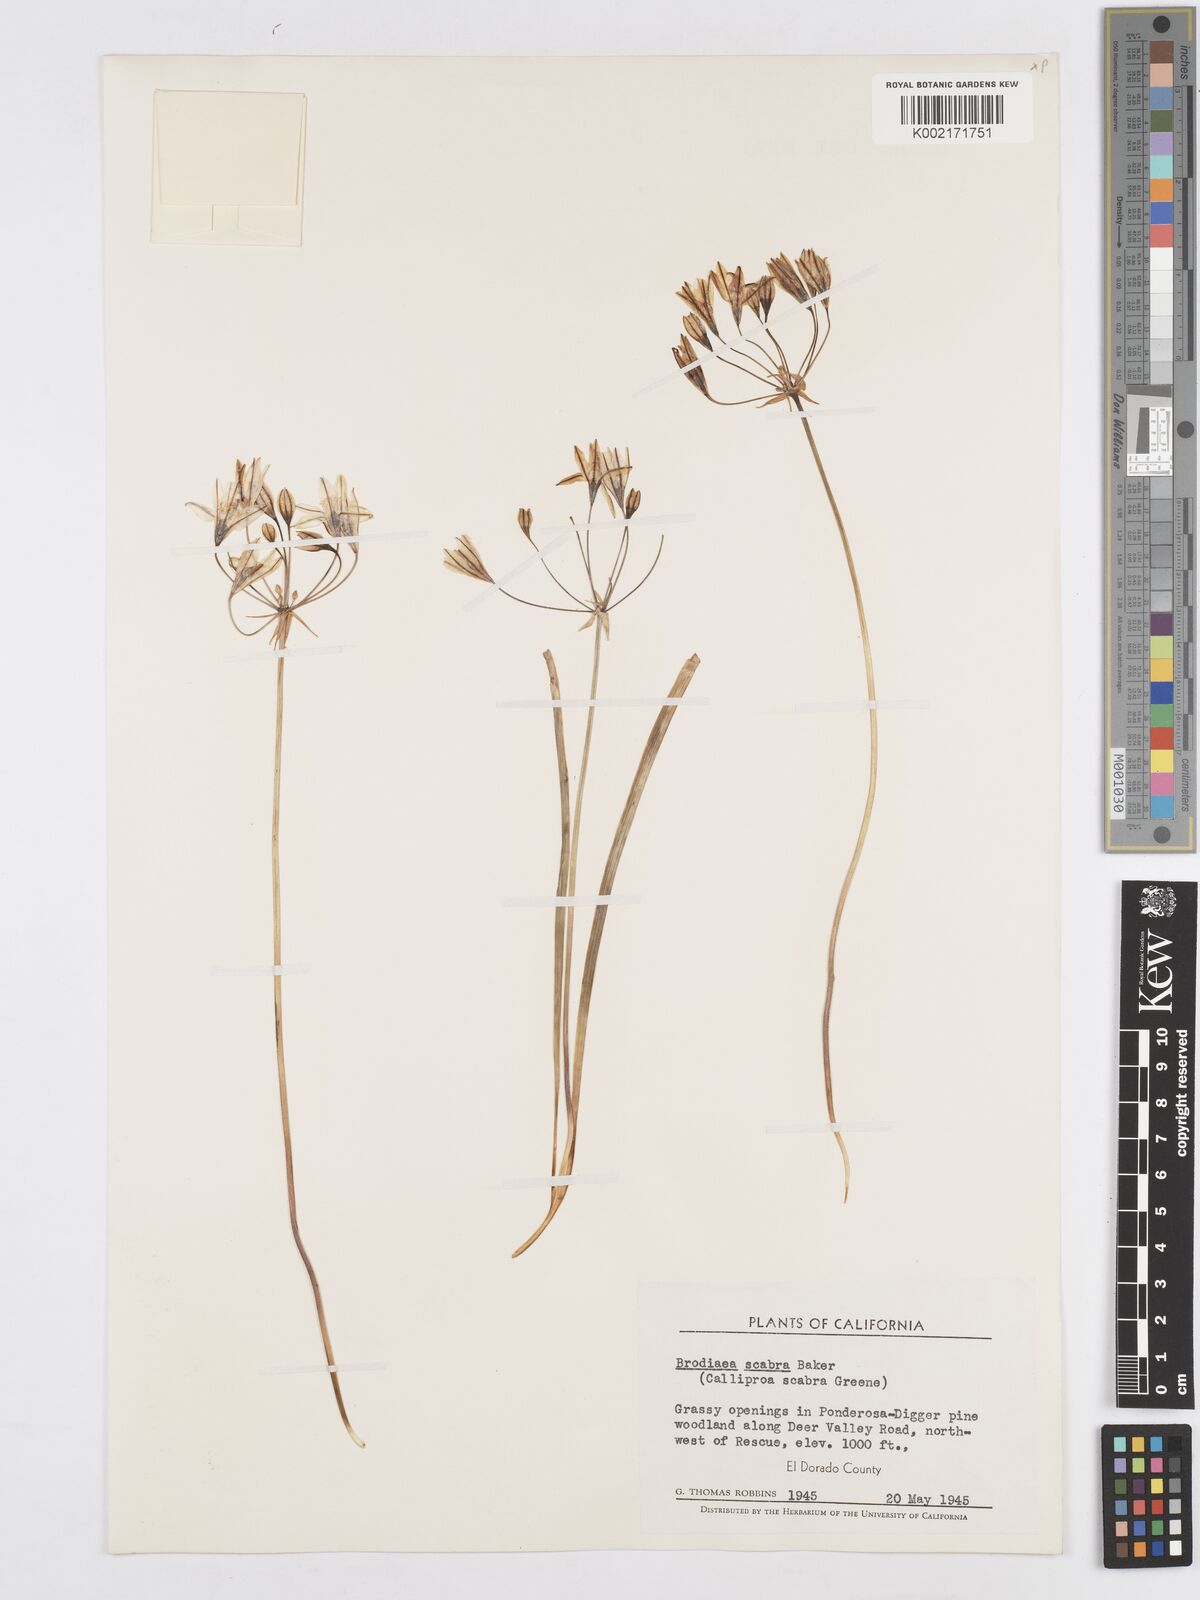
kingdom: Plantae
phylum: Tracheophyta
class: Liliopsida
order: Asparagales
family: Asparagaceae
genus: Triteleia
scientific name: Triteleia ixioides
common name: Yellow-brodiaea
